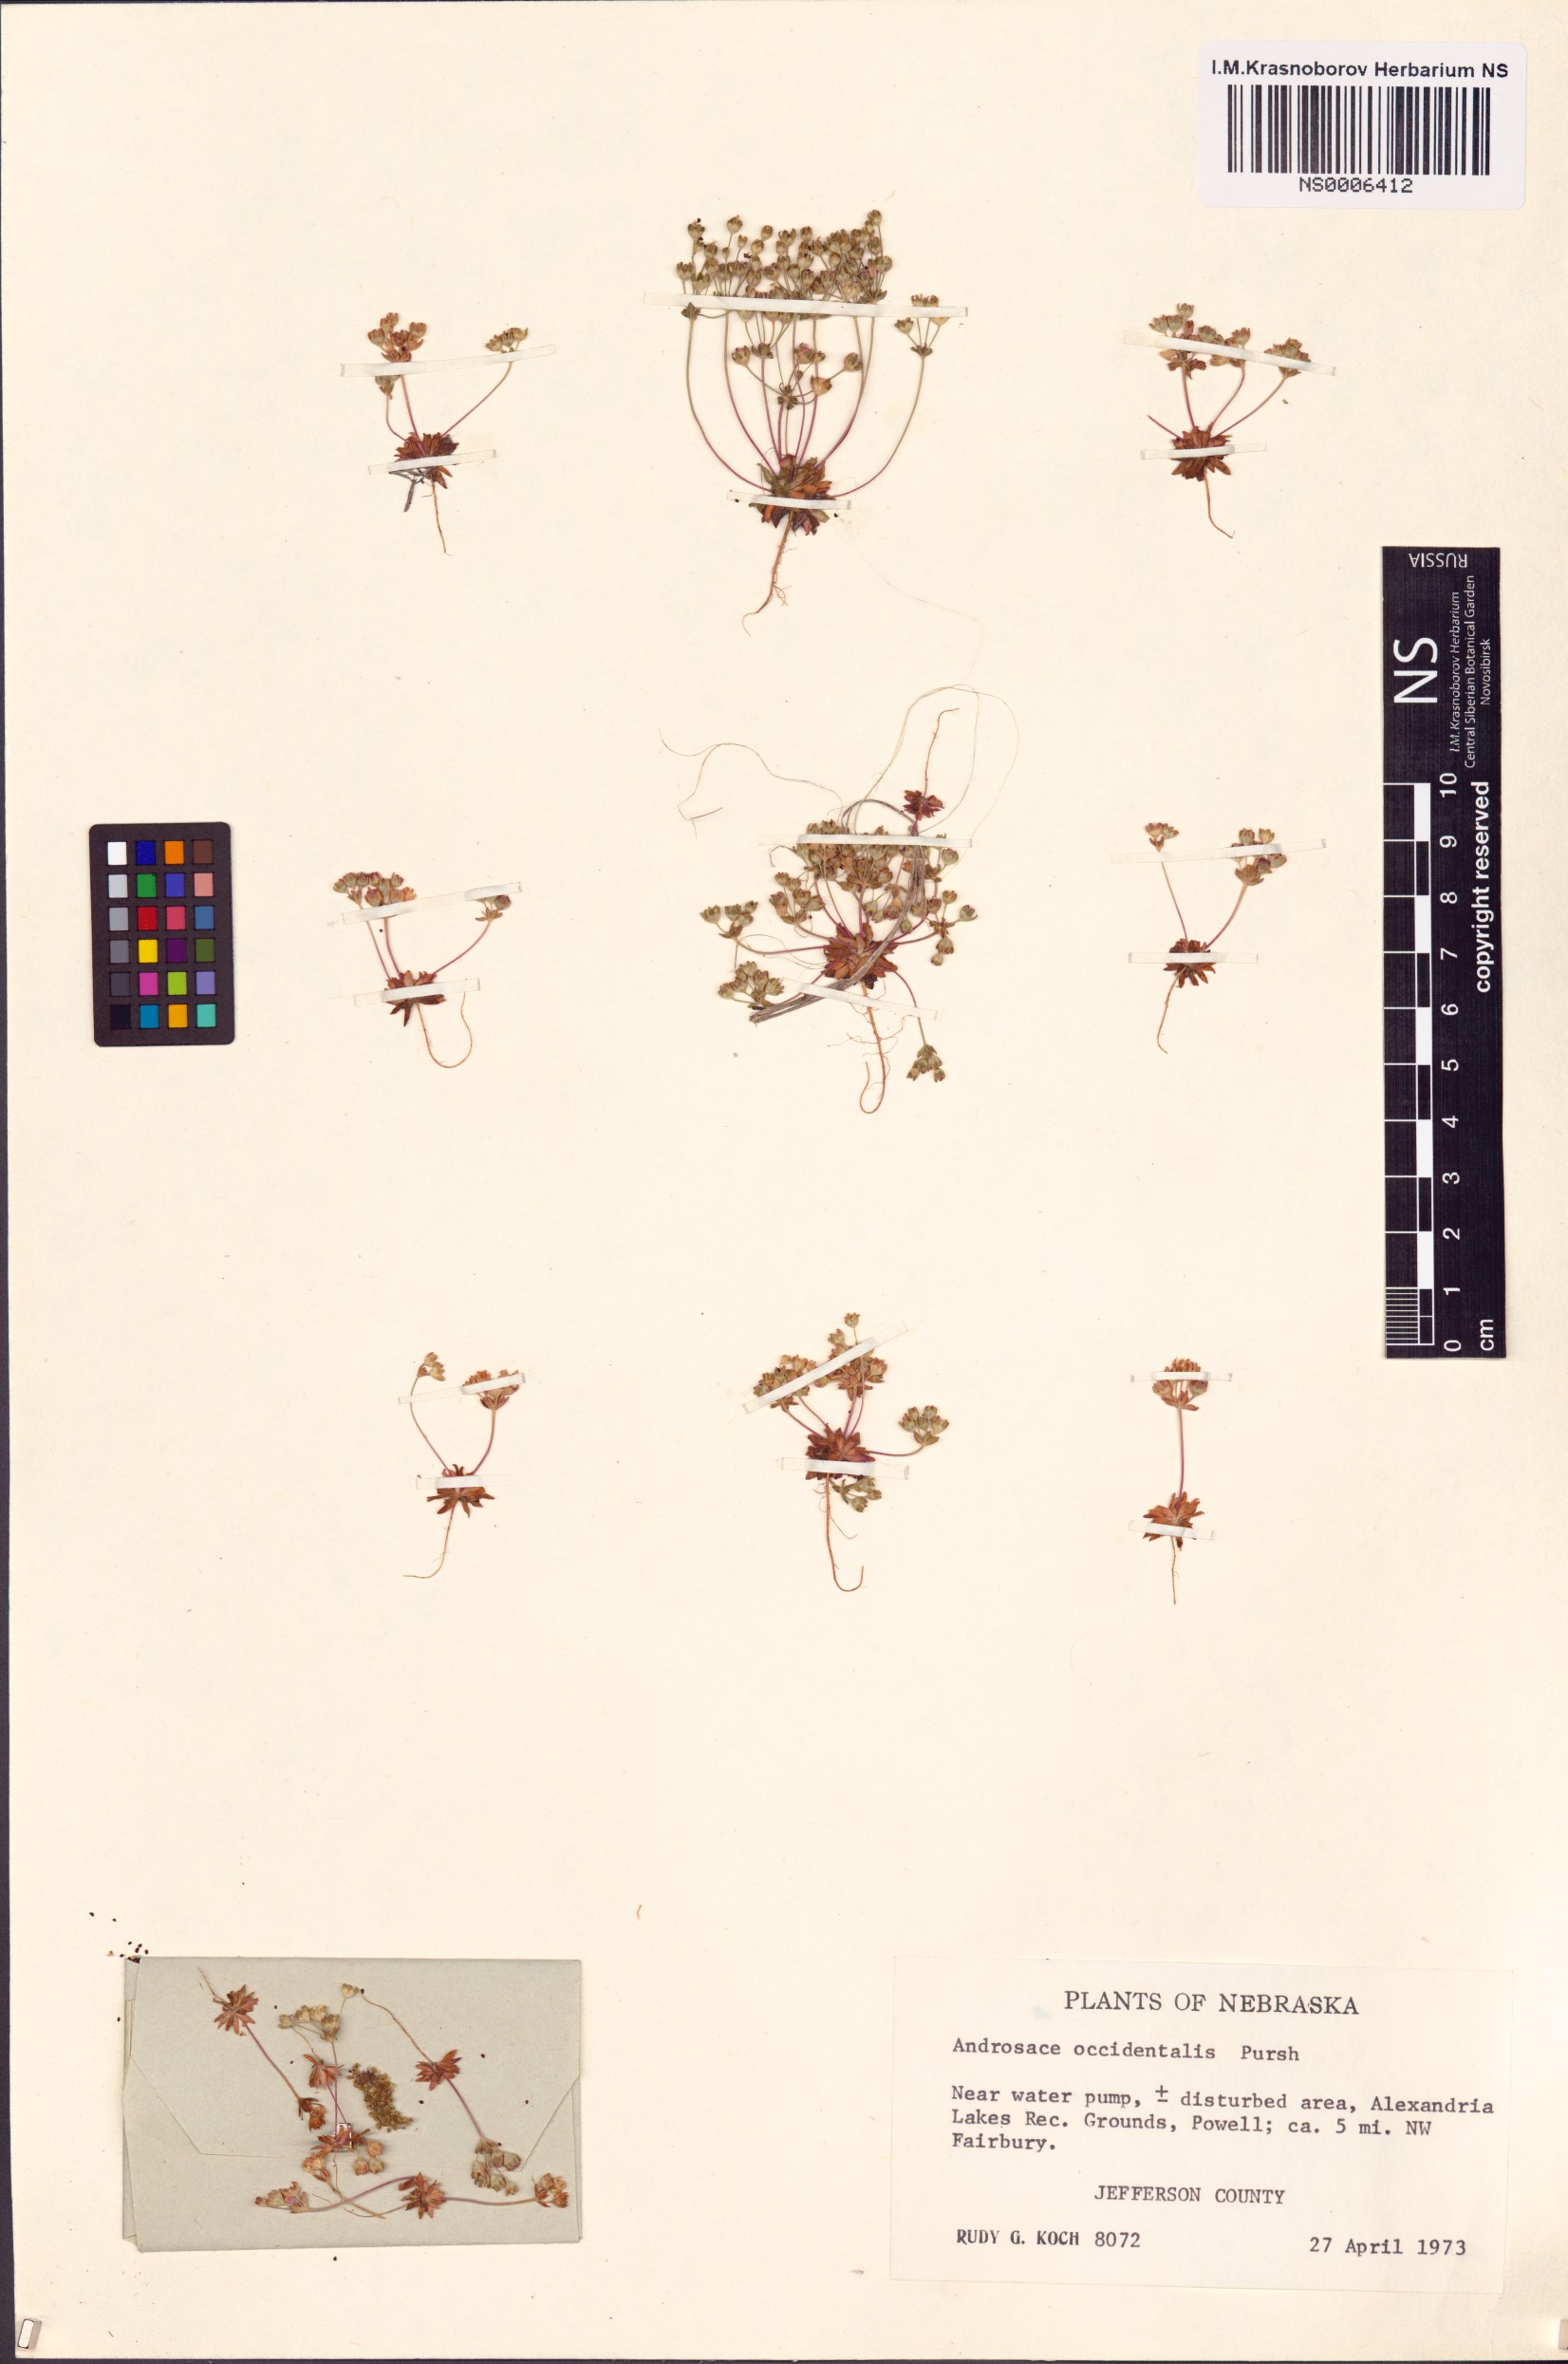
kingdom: Plantae
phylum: Tracheophyta
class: Magnoliopsida
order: Ericales
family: Primulaceae
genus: Androsace
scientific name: Androsace occidentalis
